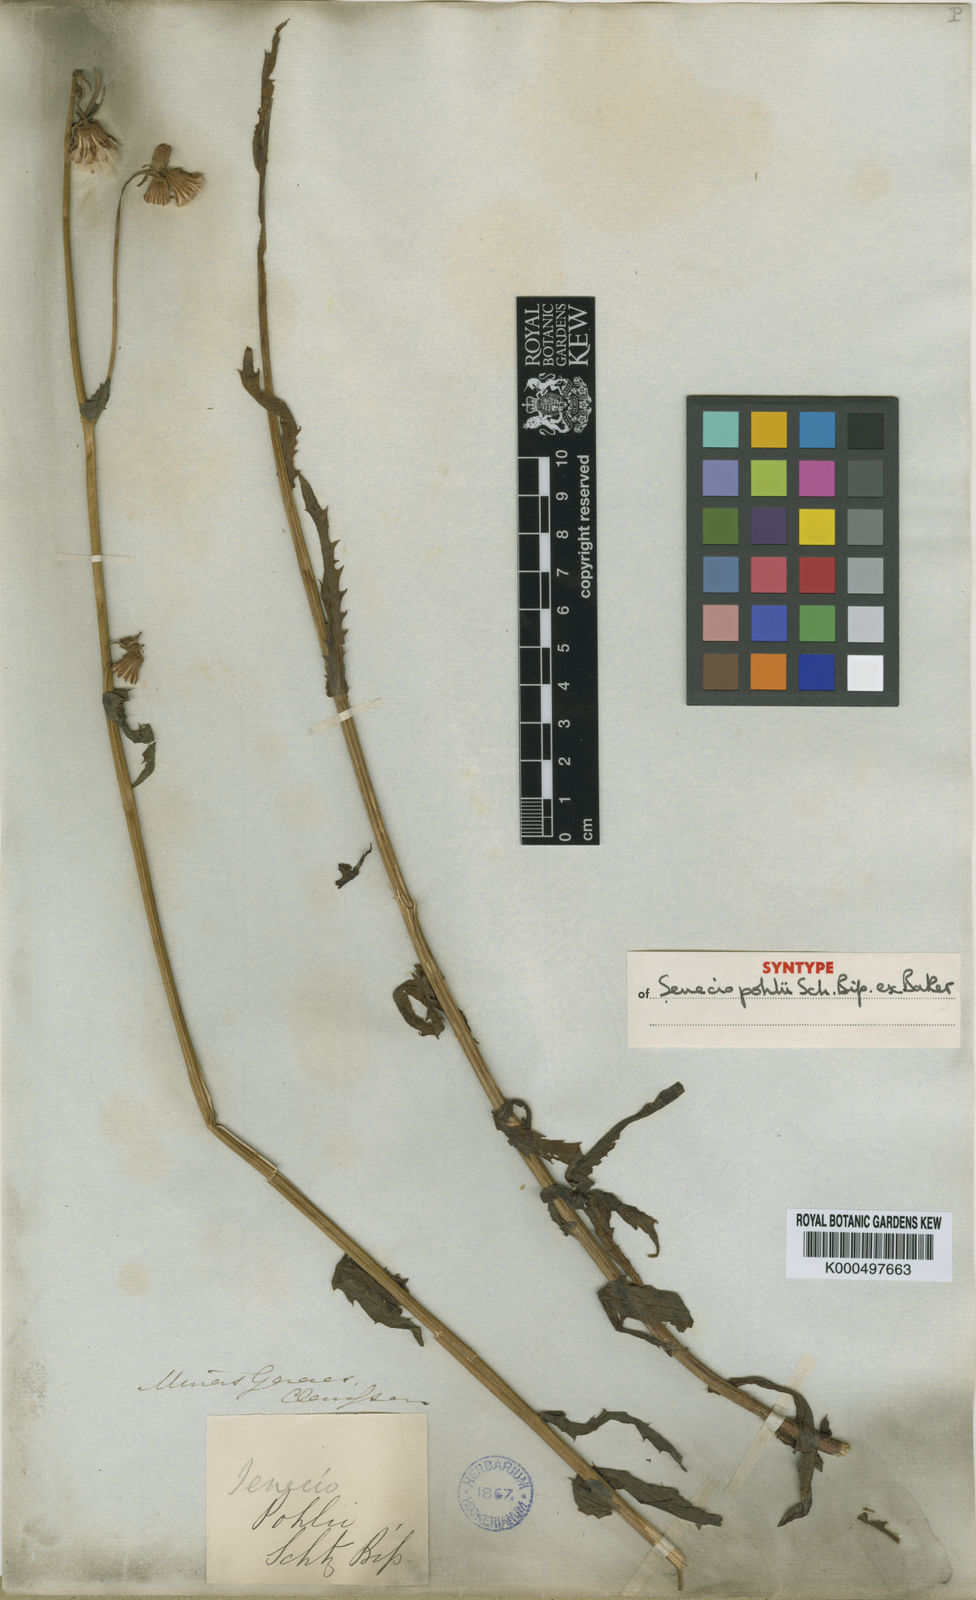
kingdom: Plantae
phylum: Tracheophyta
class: Magnoliopsida
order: Asterales
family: Asteraceae
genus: Senecio
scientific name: Senecio
